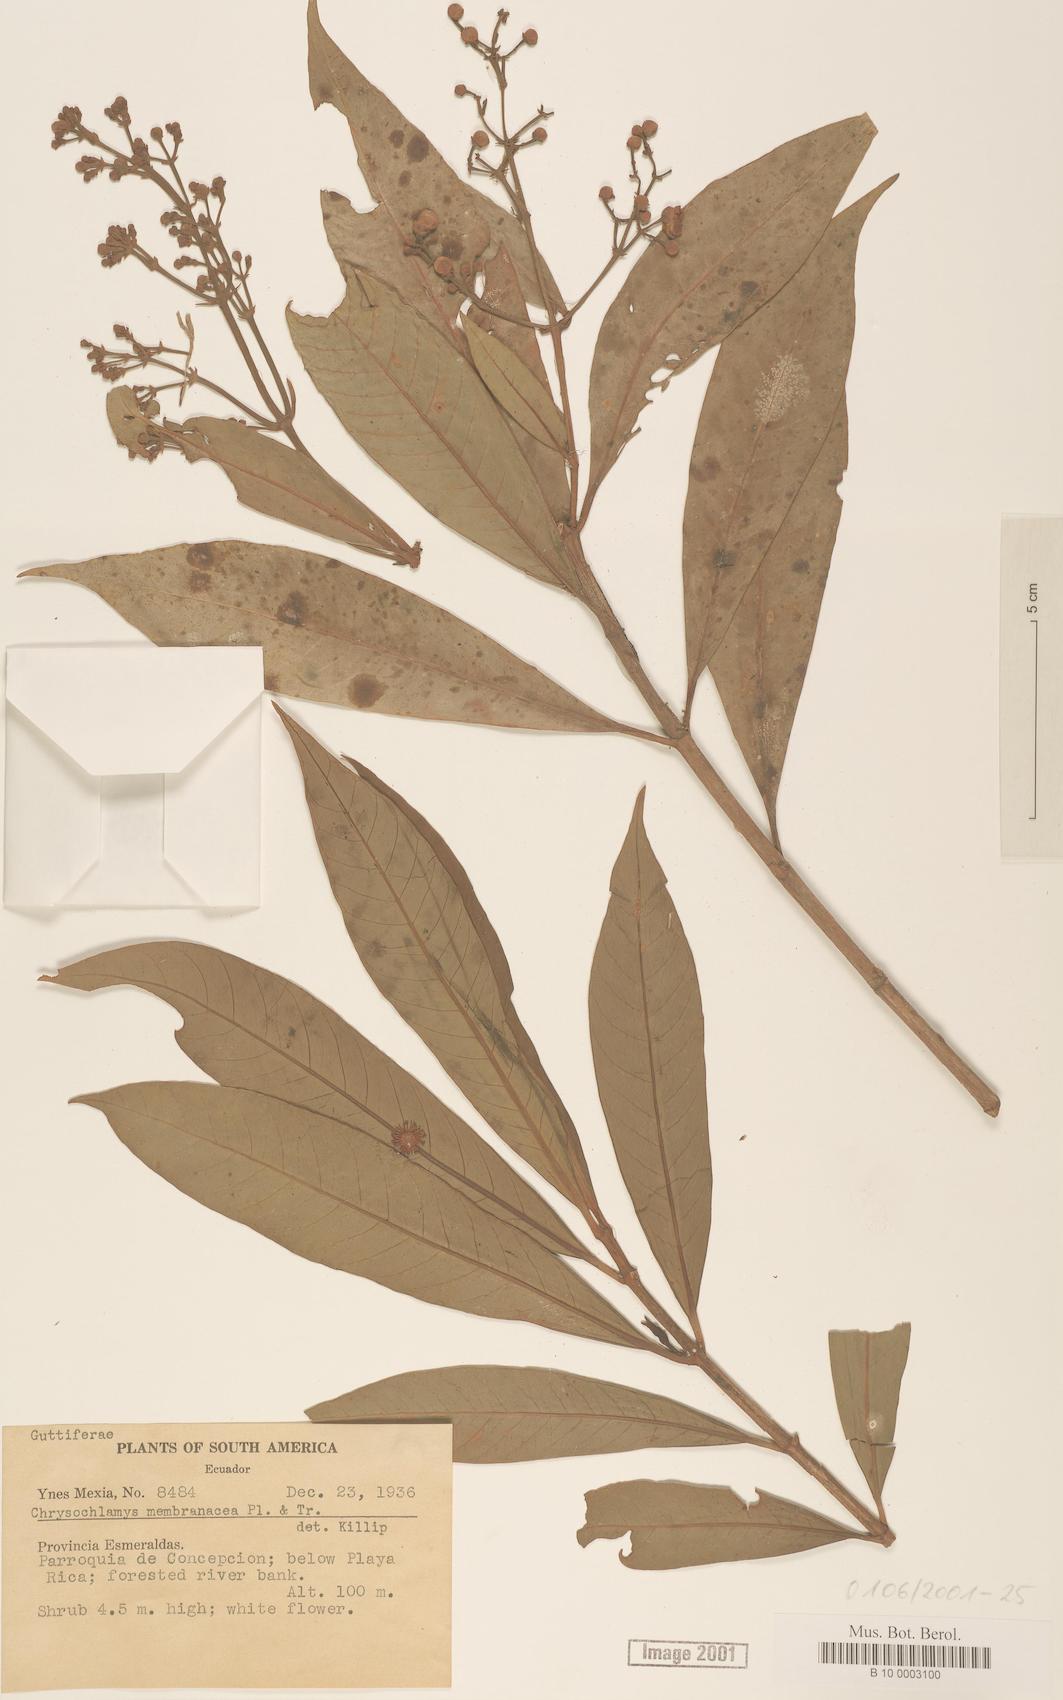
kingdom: Plantae
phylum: Tracheophyta
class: Magnoliopsida
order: Malpighiales
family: Clusiaceae
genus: Chrysochlamys
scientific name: Chrysochlamys membranacea
